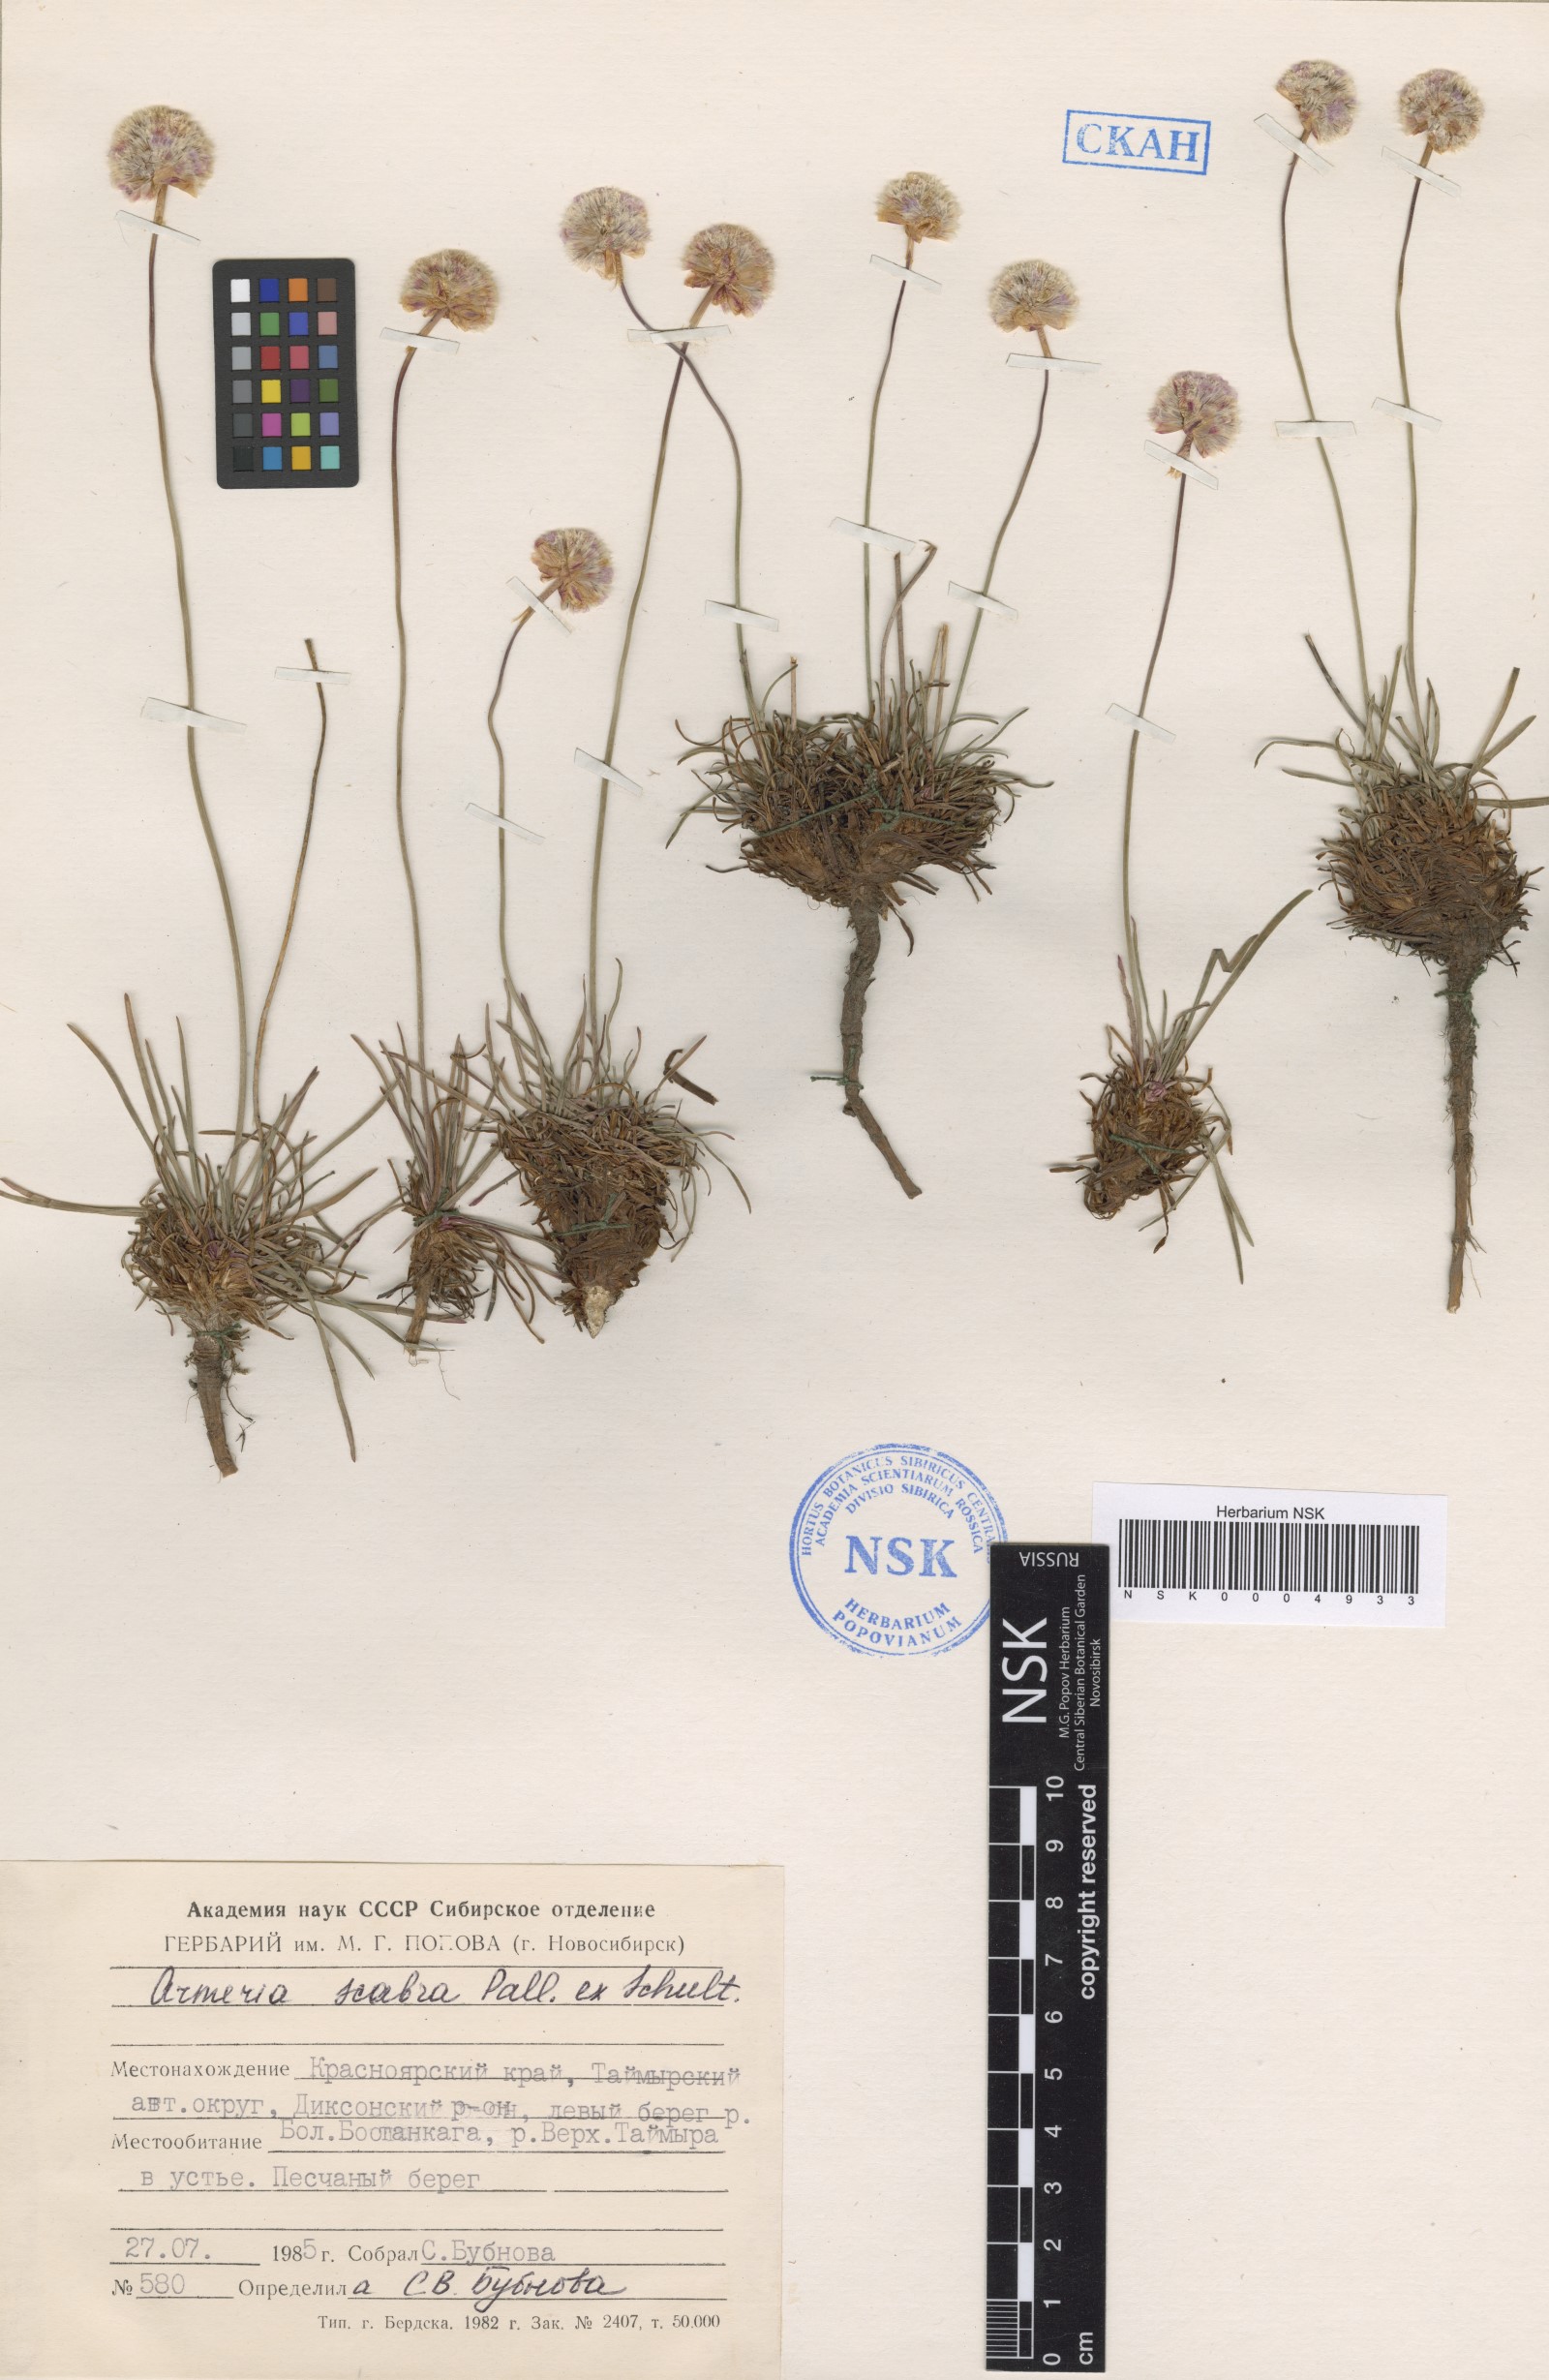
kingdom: Plantae
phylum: Tracheophyta
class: Magnoliopsida
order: Caryophyllales
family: Plumbaginaceae
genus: Armeria
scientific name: Armeria maritima
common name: Thrift
